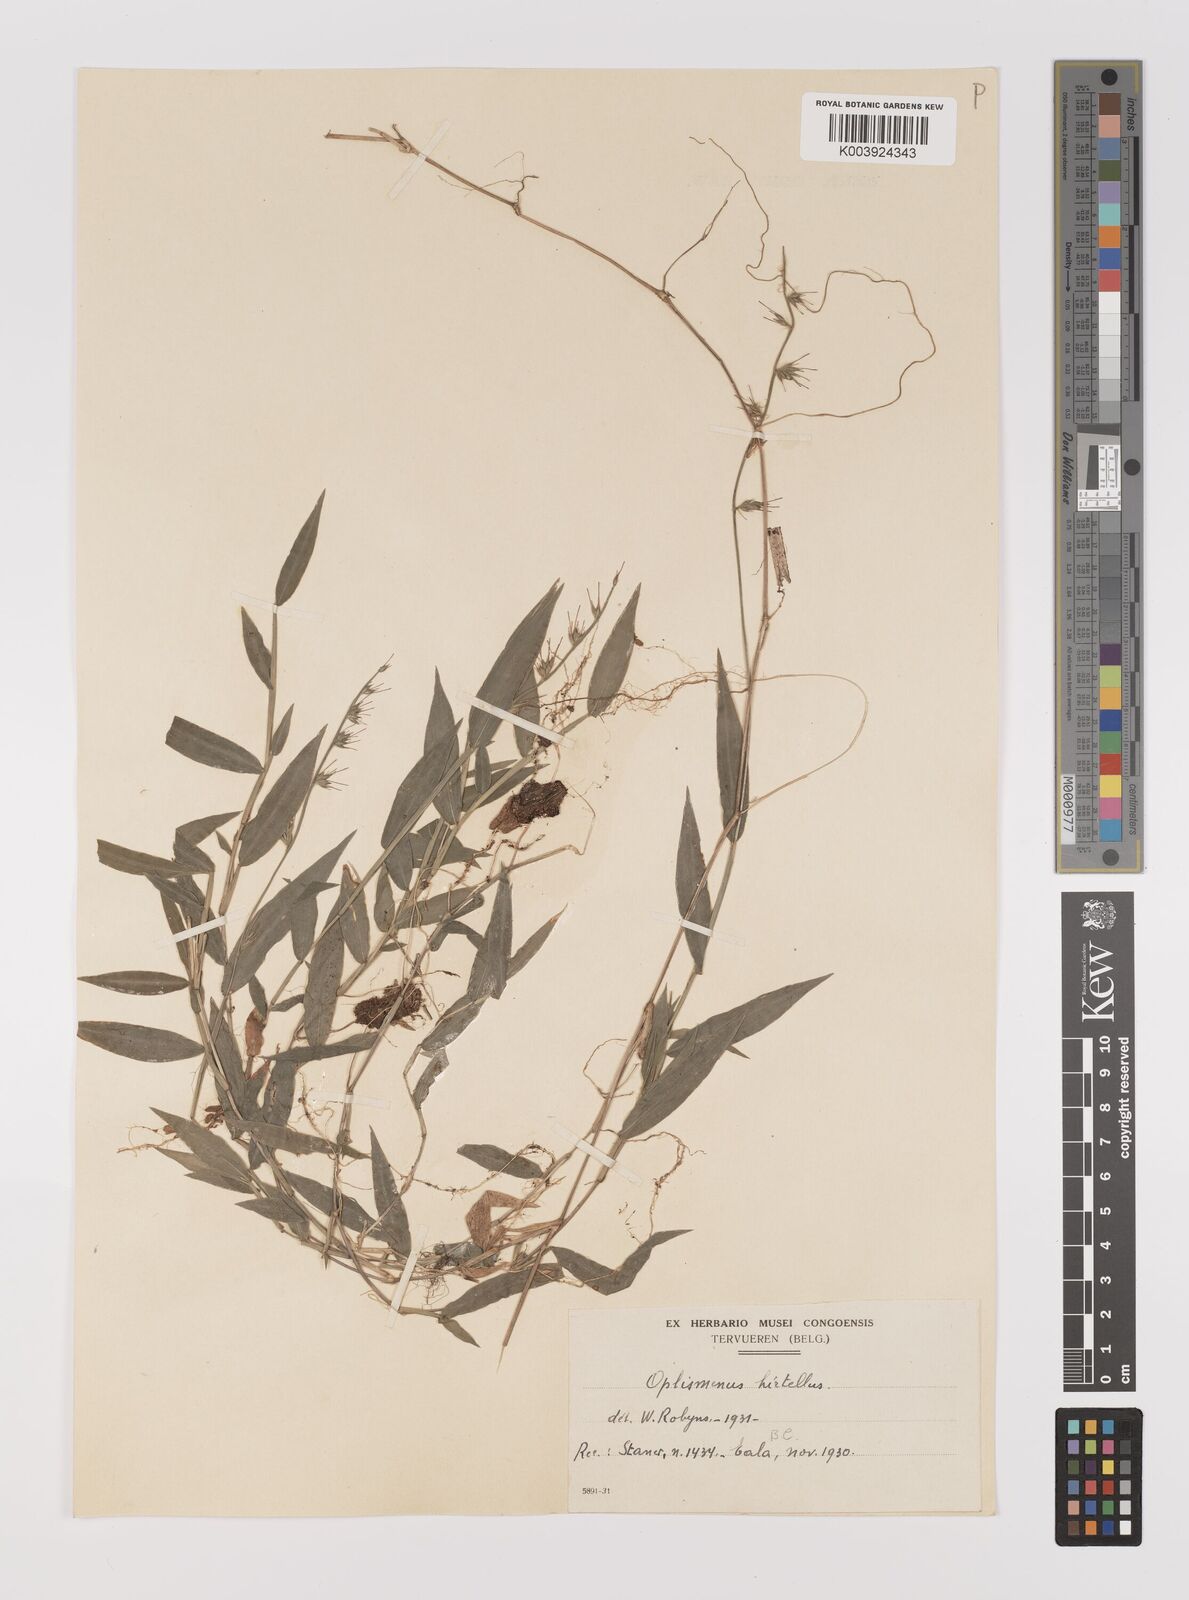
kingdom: Plantae
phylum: Tracheophyta
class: Liliopsida
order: Poales
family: Poaceae
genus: Oplismenus
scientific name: Oplismenus hirtellus
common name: Basketgrass
